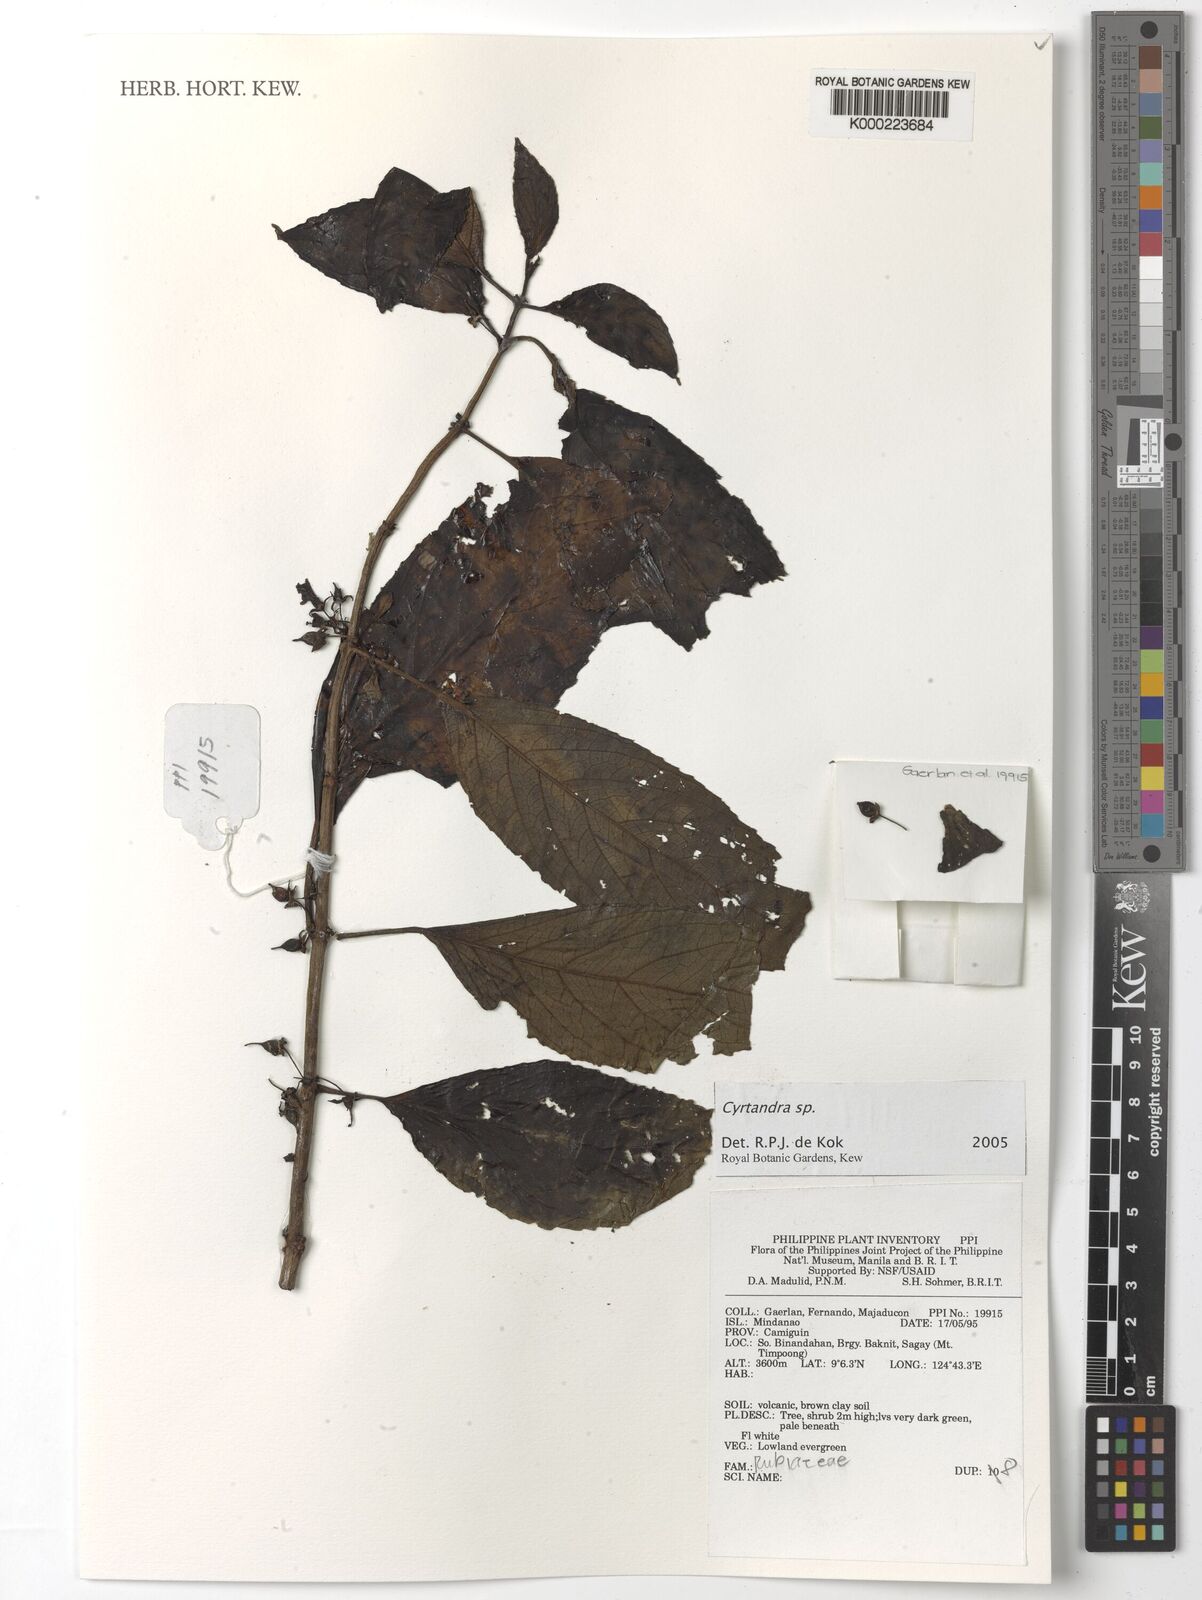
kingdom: Plantae
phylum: Tracheophyta
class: Magnoliopsida
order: Lamiales
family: Gesneriaceae
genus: Cyrtandra
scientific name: Cyrtandra
